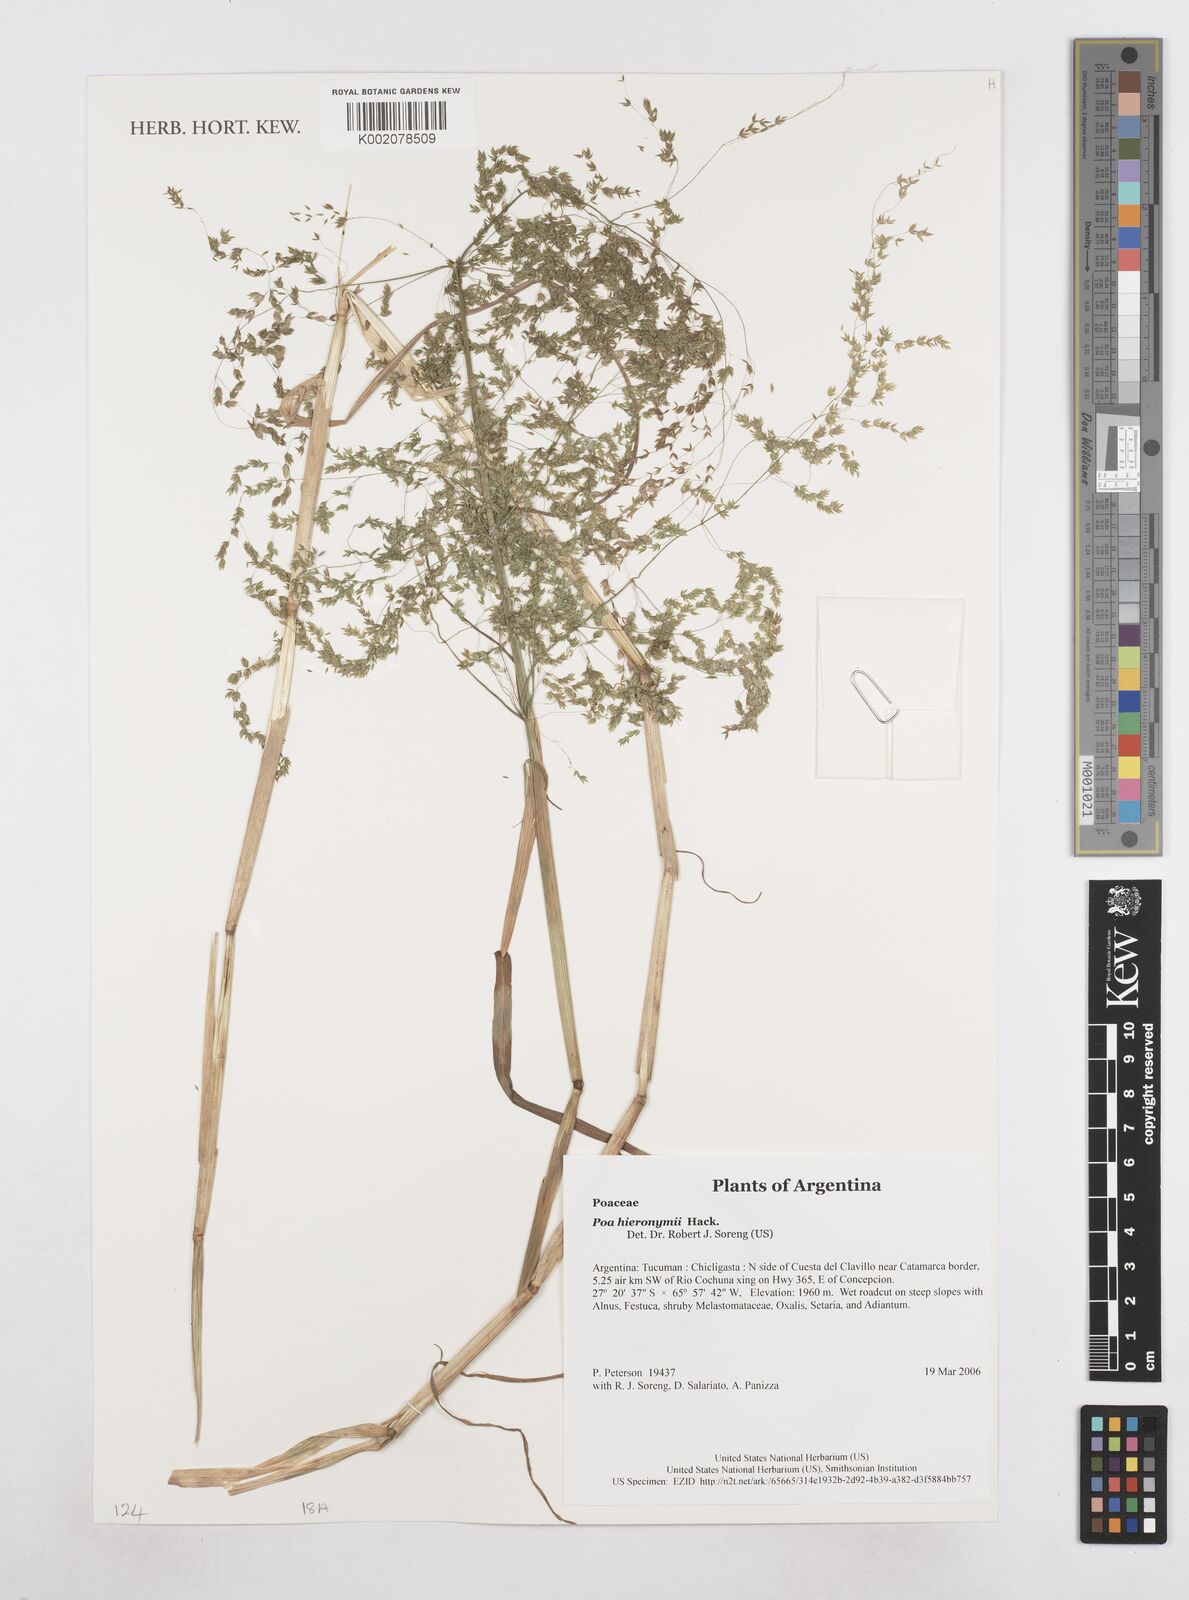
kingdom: Plantae
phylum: Tracheophyta
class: Liliopsida
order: Poales
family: Poaceae
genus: Poa
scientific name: Poa hieronymi
